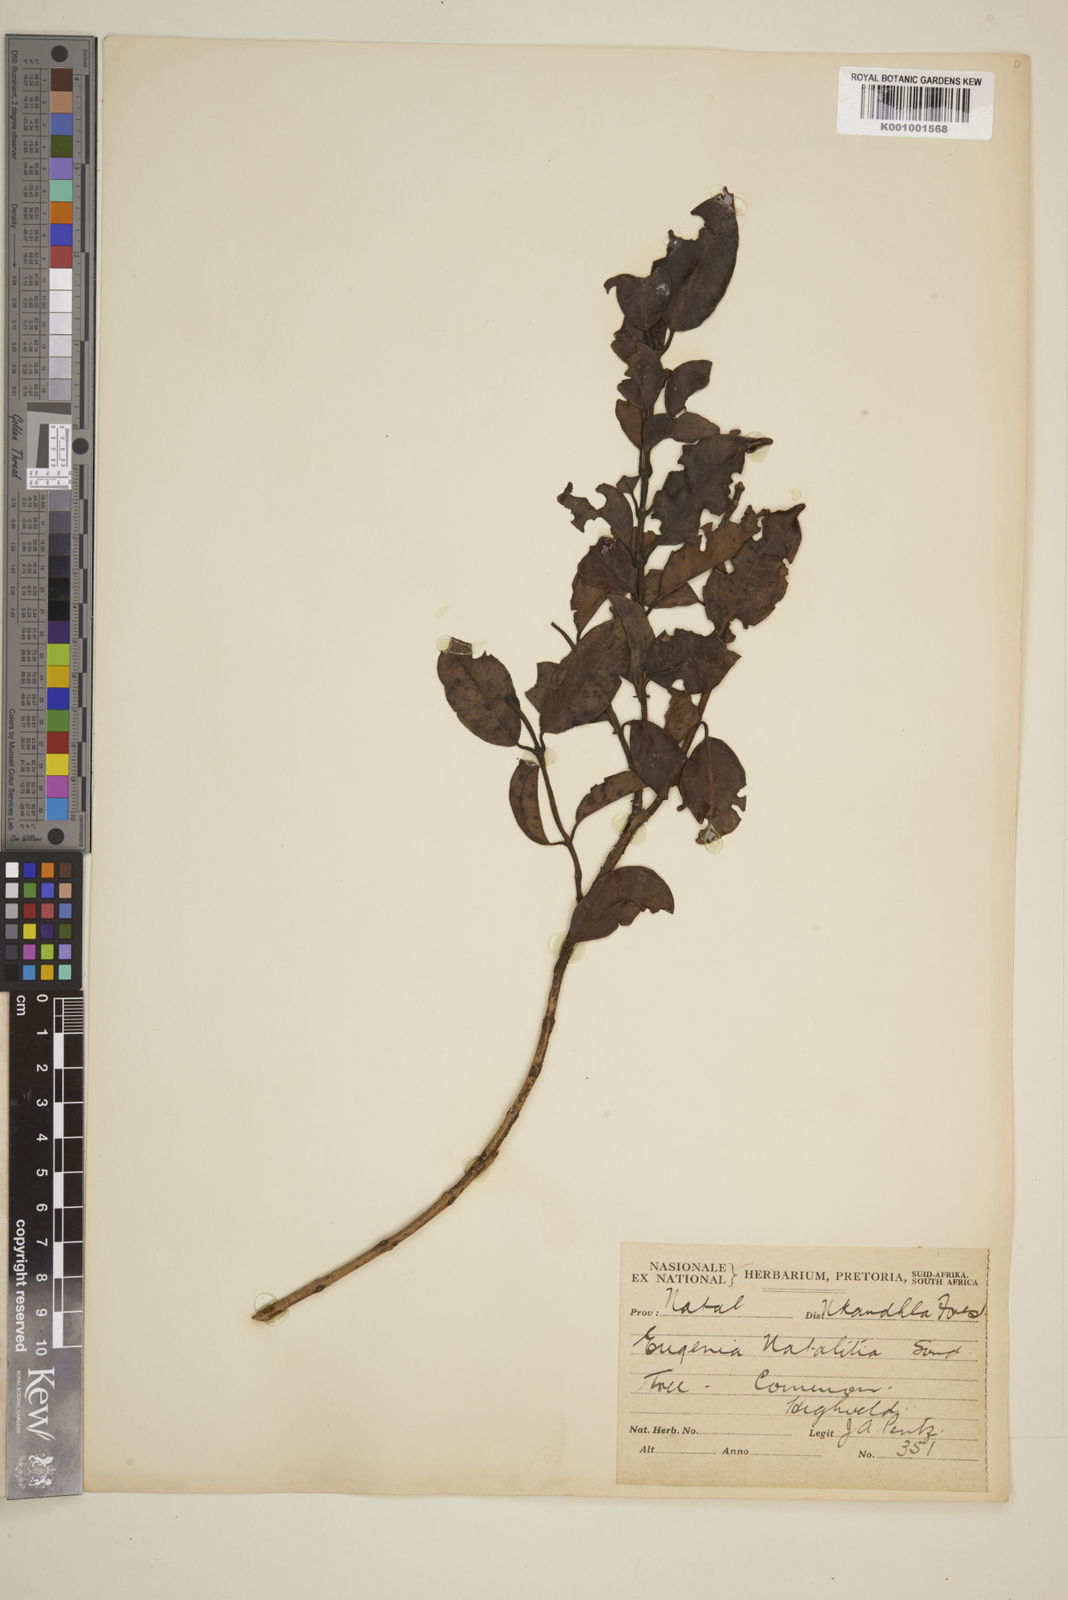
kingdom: Plantae
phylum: Tracheophyta
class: Magnoliopsida
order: Myrtales
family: Myrtaceae
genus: Eugenia
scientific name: Eugenia natalitia
